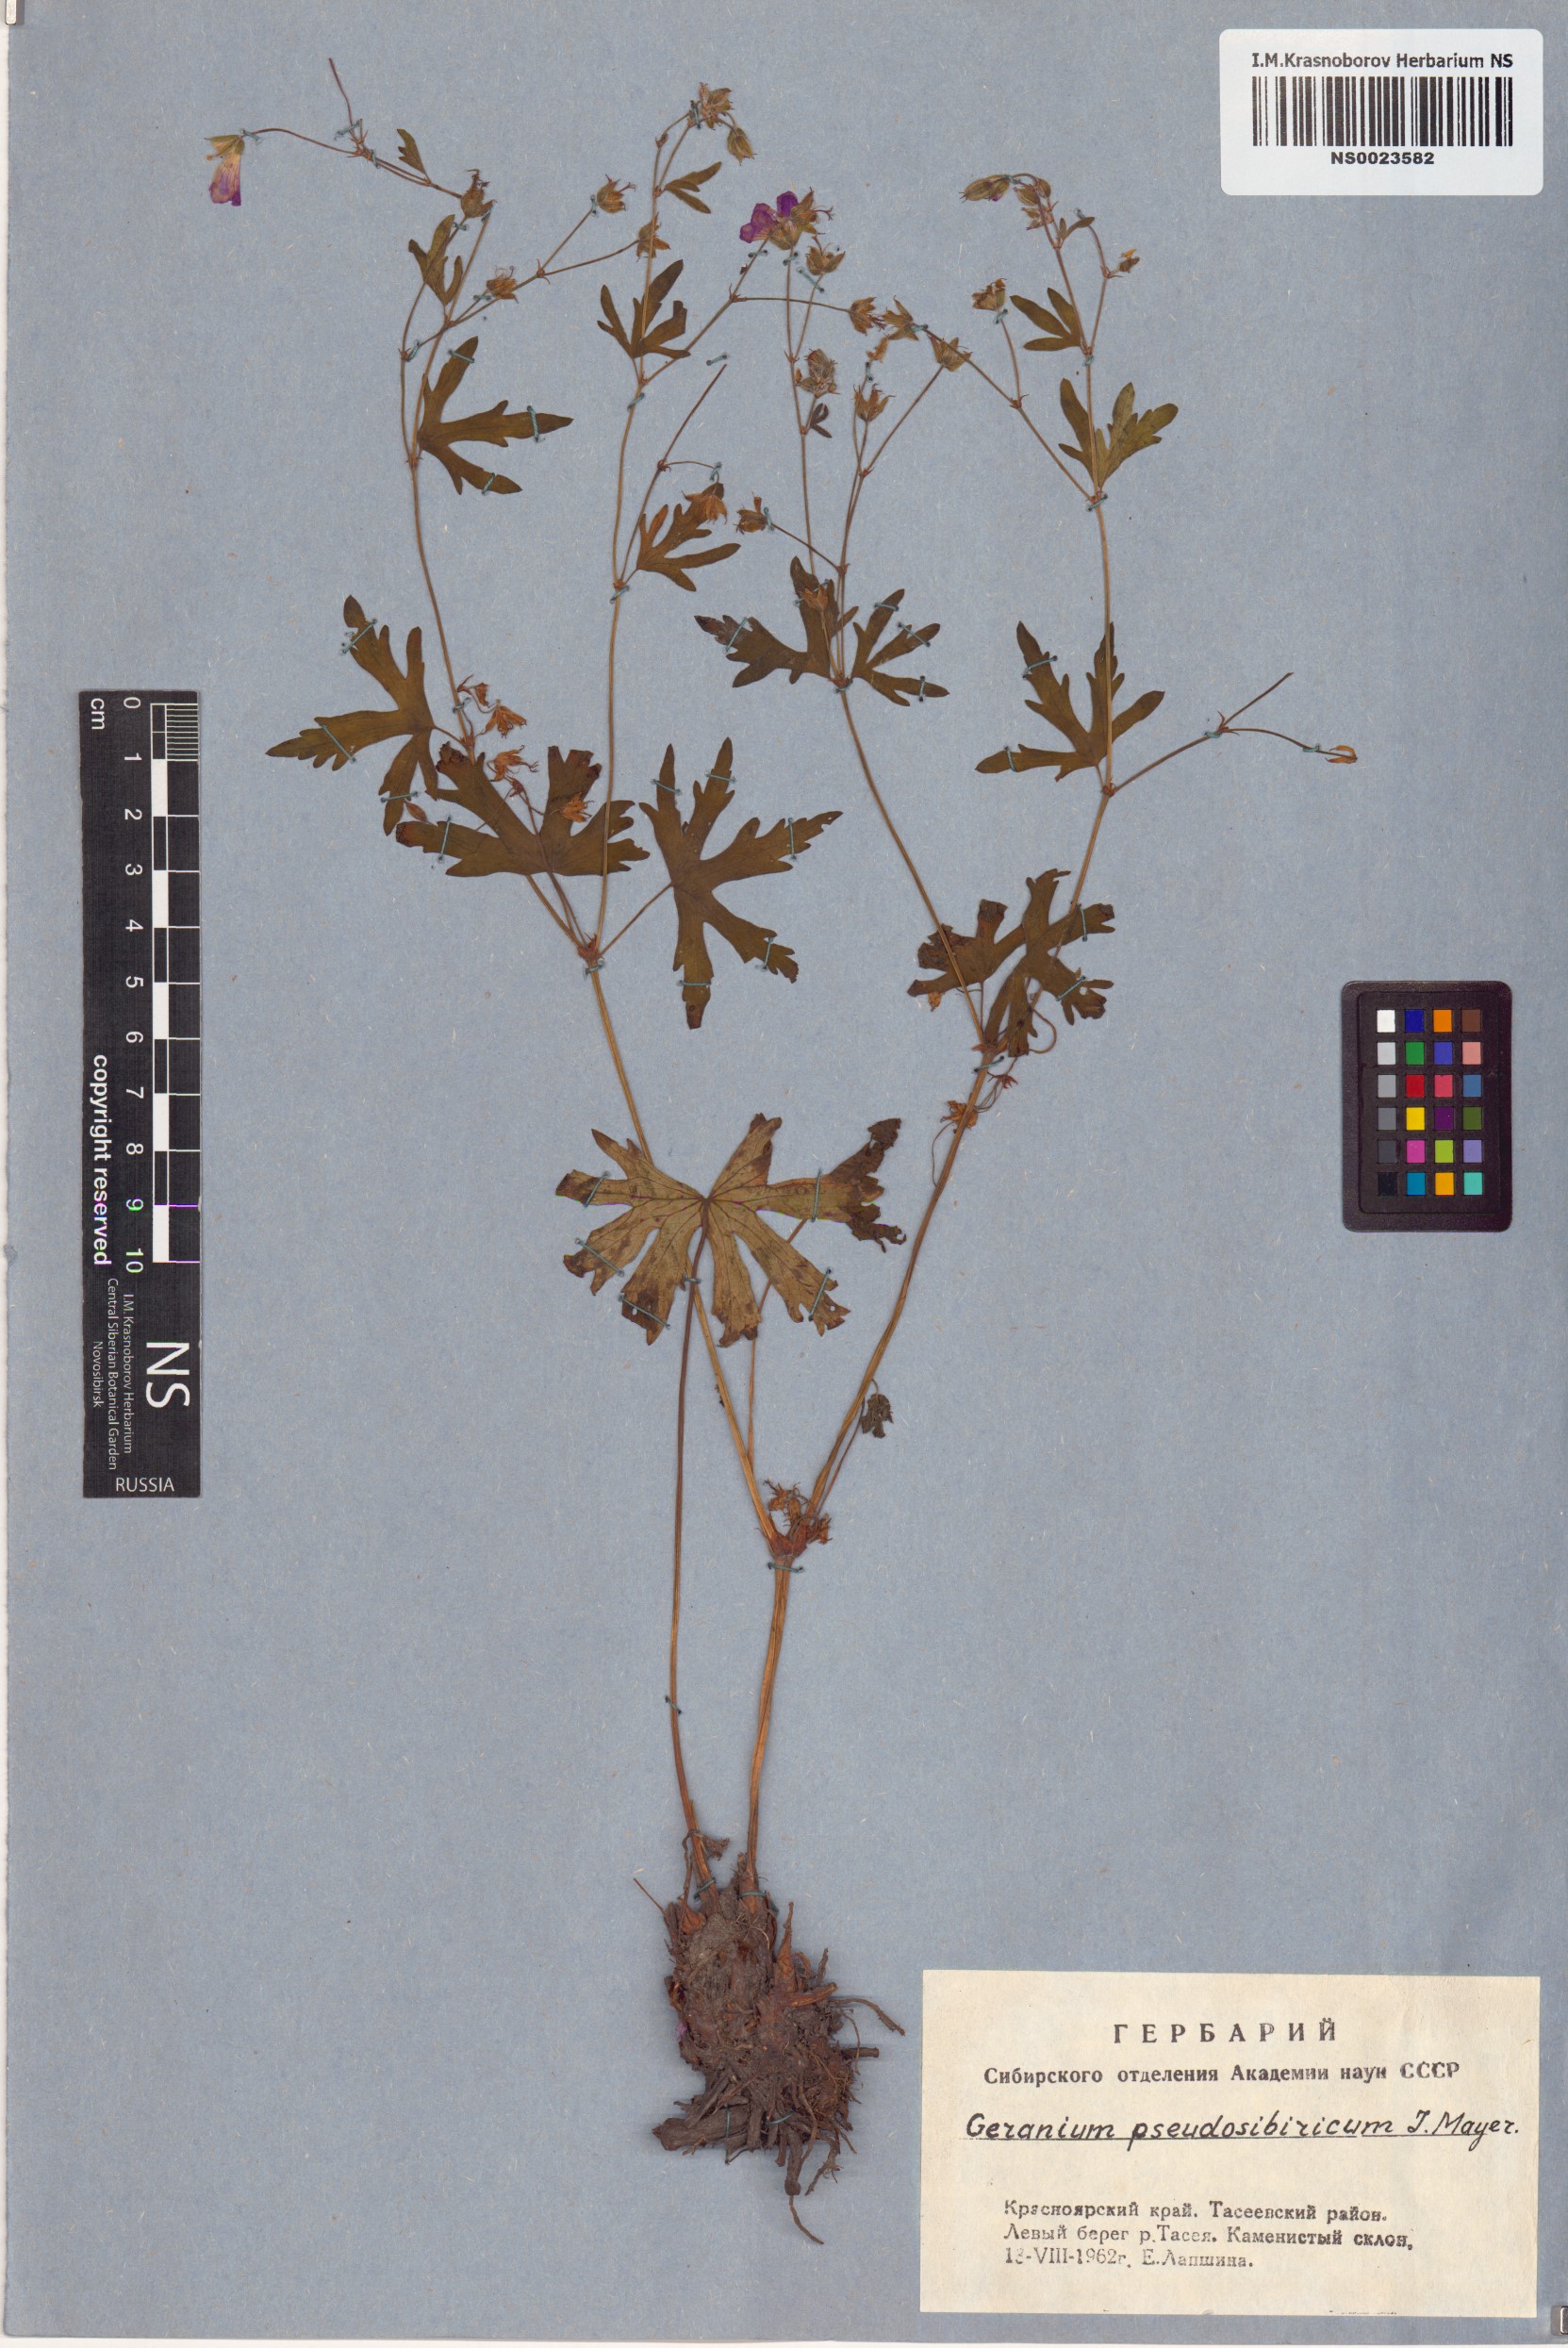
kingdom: Plantae
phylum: Tracheophyta
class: Magnoliopsida
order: Geraniales
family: Geraniaceae
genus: Geranium
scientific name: Geranium pseudosibiricum
